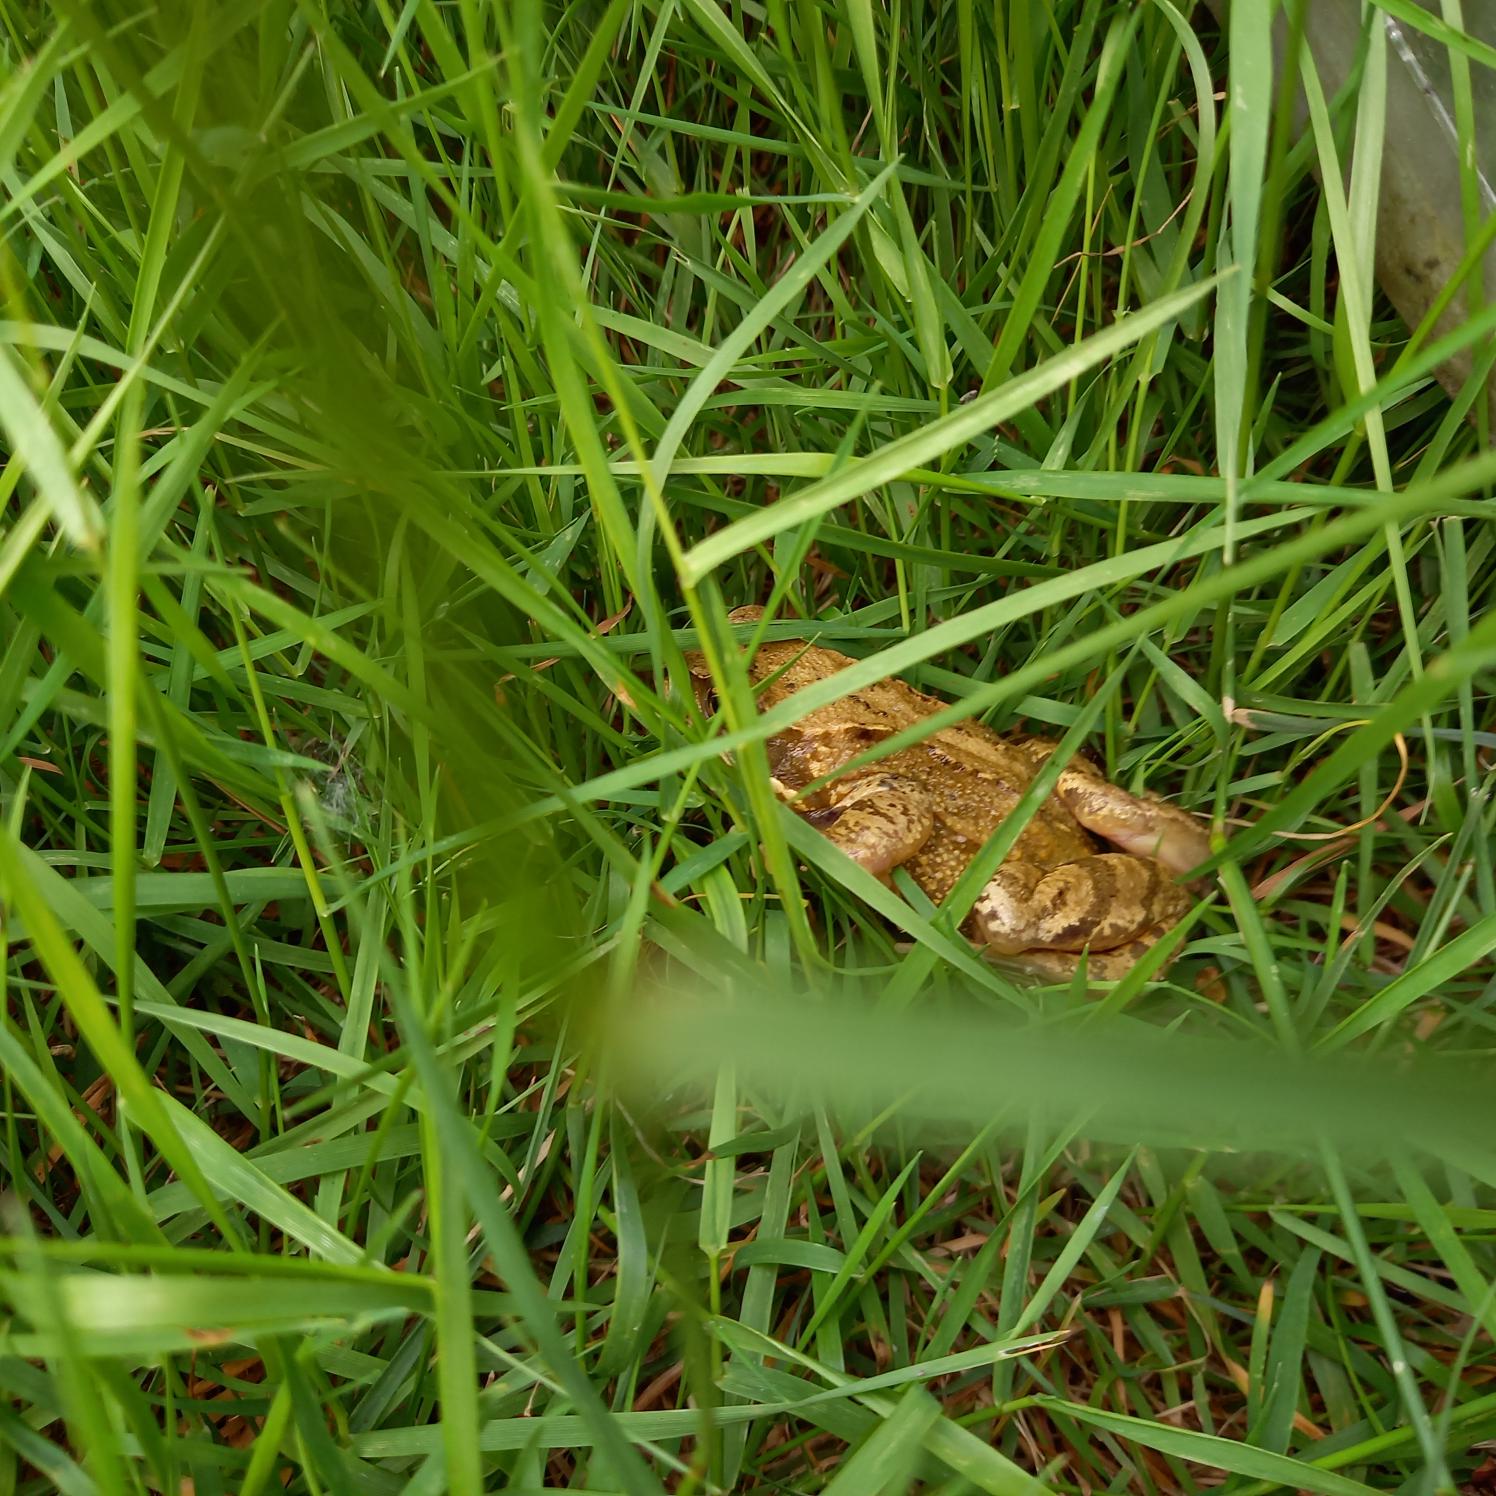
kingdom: Animalia
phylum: Chordata
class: Amphibia
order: Anura
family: Ranidae
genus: Rana
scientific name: Rana temporaria
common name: Butsnudet frø
